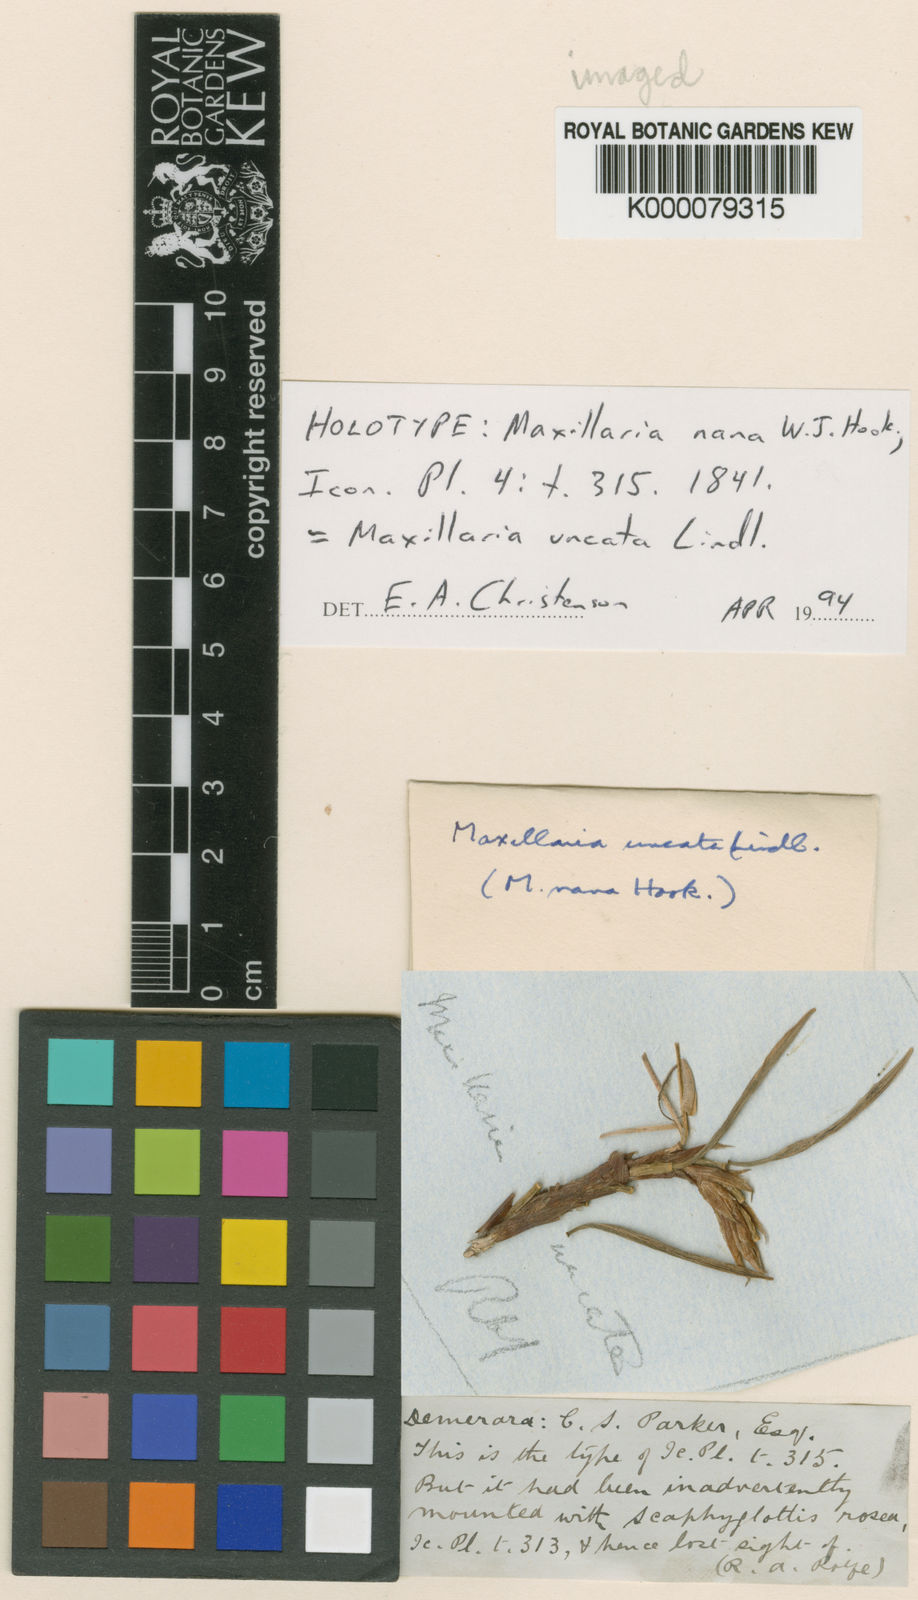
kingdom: Plantae
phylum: Tracheophyta
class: Liliopsida
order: Asparagales
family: Orchidaceae
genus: Maxillaria
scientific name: Maxillaria uncata
